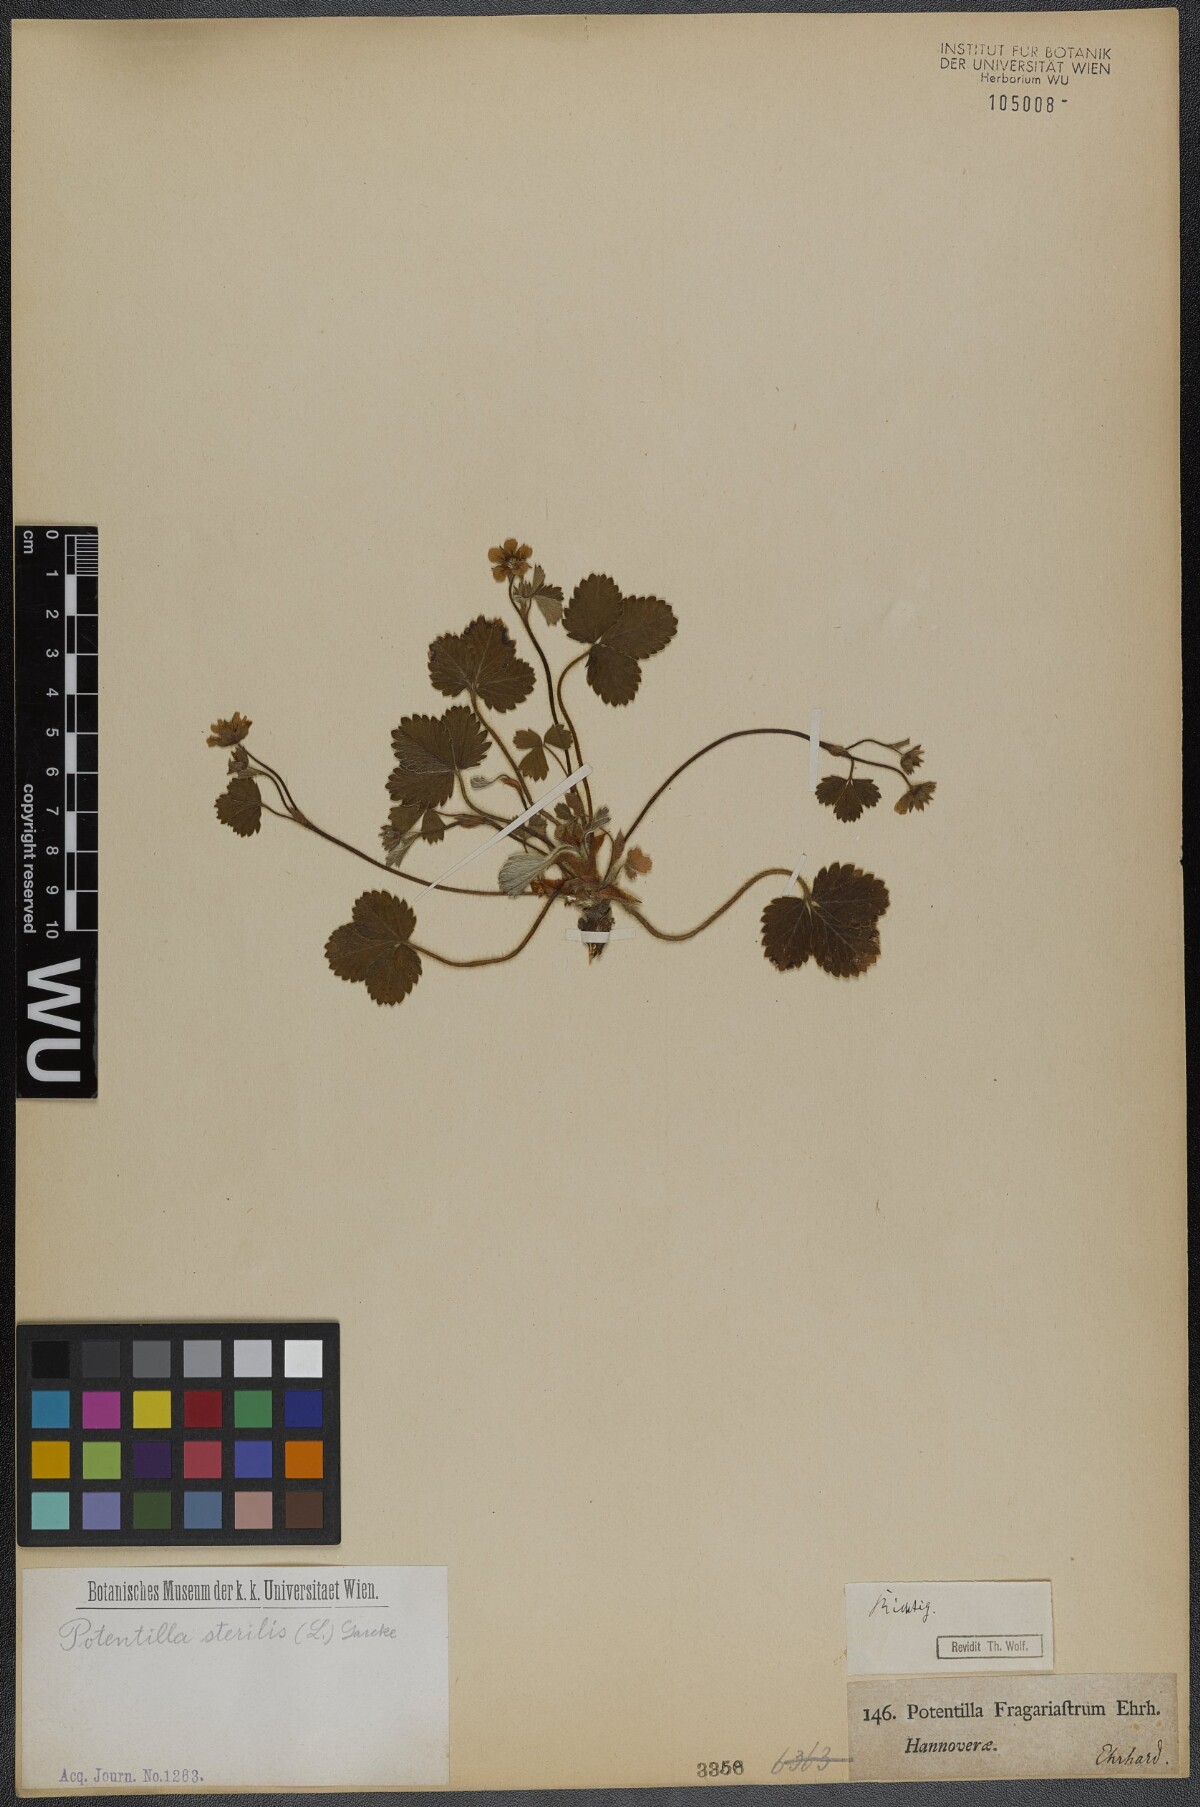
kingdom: Plantae
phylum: Tracheophyta
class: Magnoliopsida
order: Rosales
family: Rosaceae
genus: Potentilla
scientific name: Potentilla sterilis
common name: Barren strawberry
